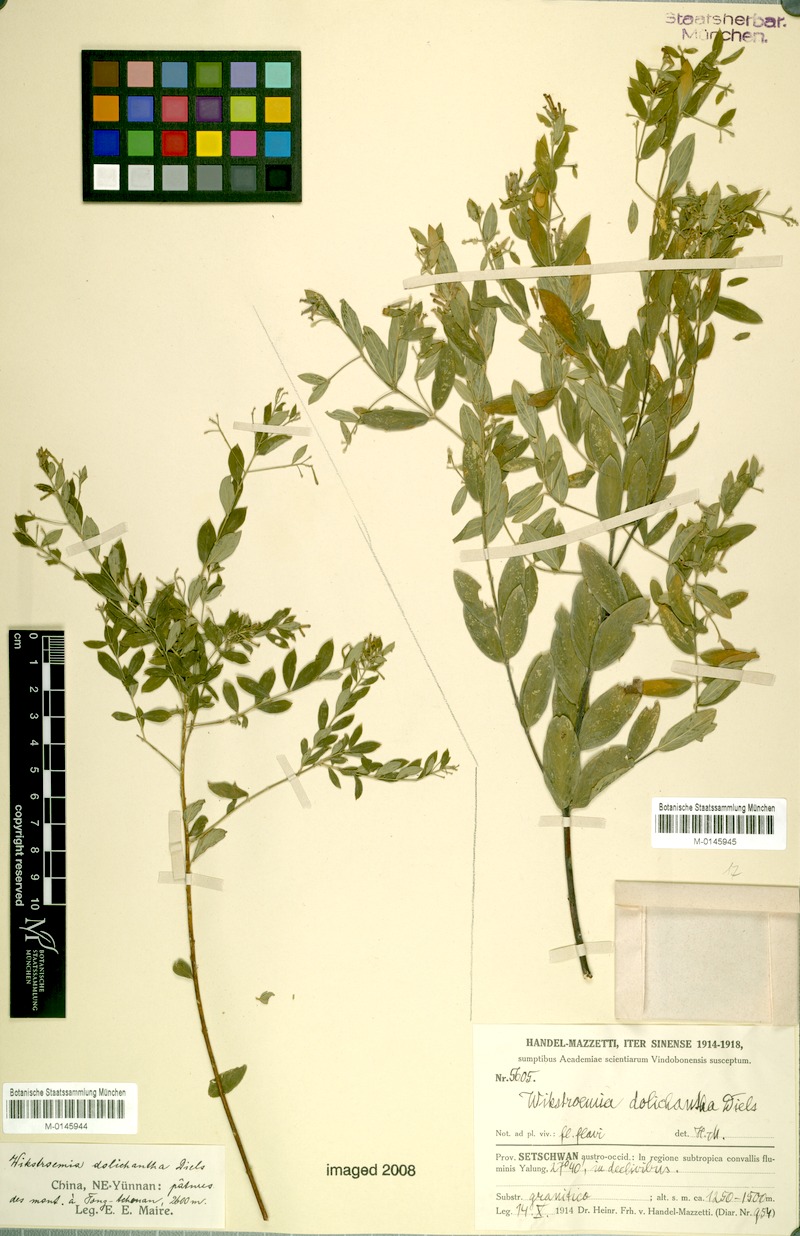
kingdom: Plantae
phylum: Tracheophyta
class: Magnoliopsida
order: Malvales
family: Thymelaeaceae
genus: Wikstroemia
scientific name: Wikstroemia dolichantha
